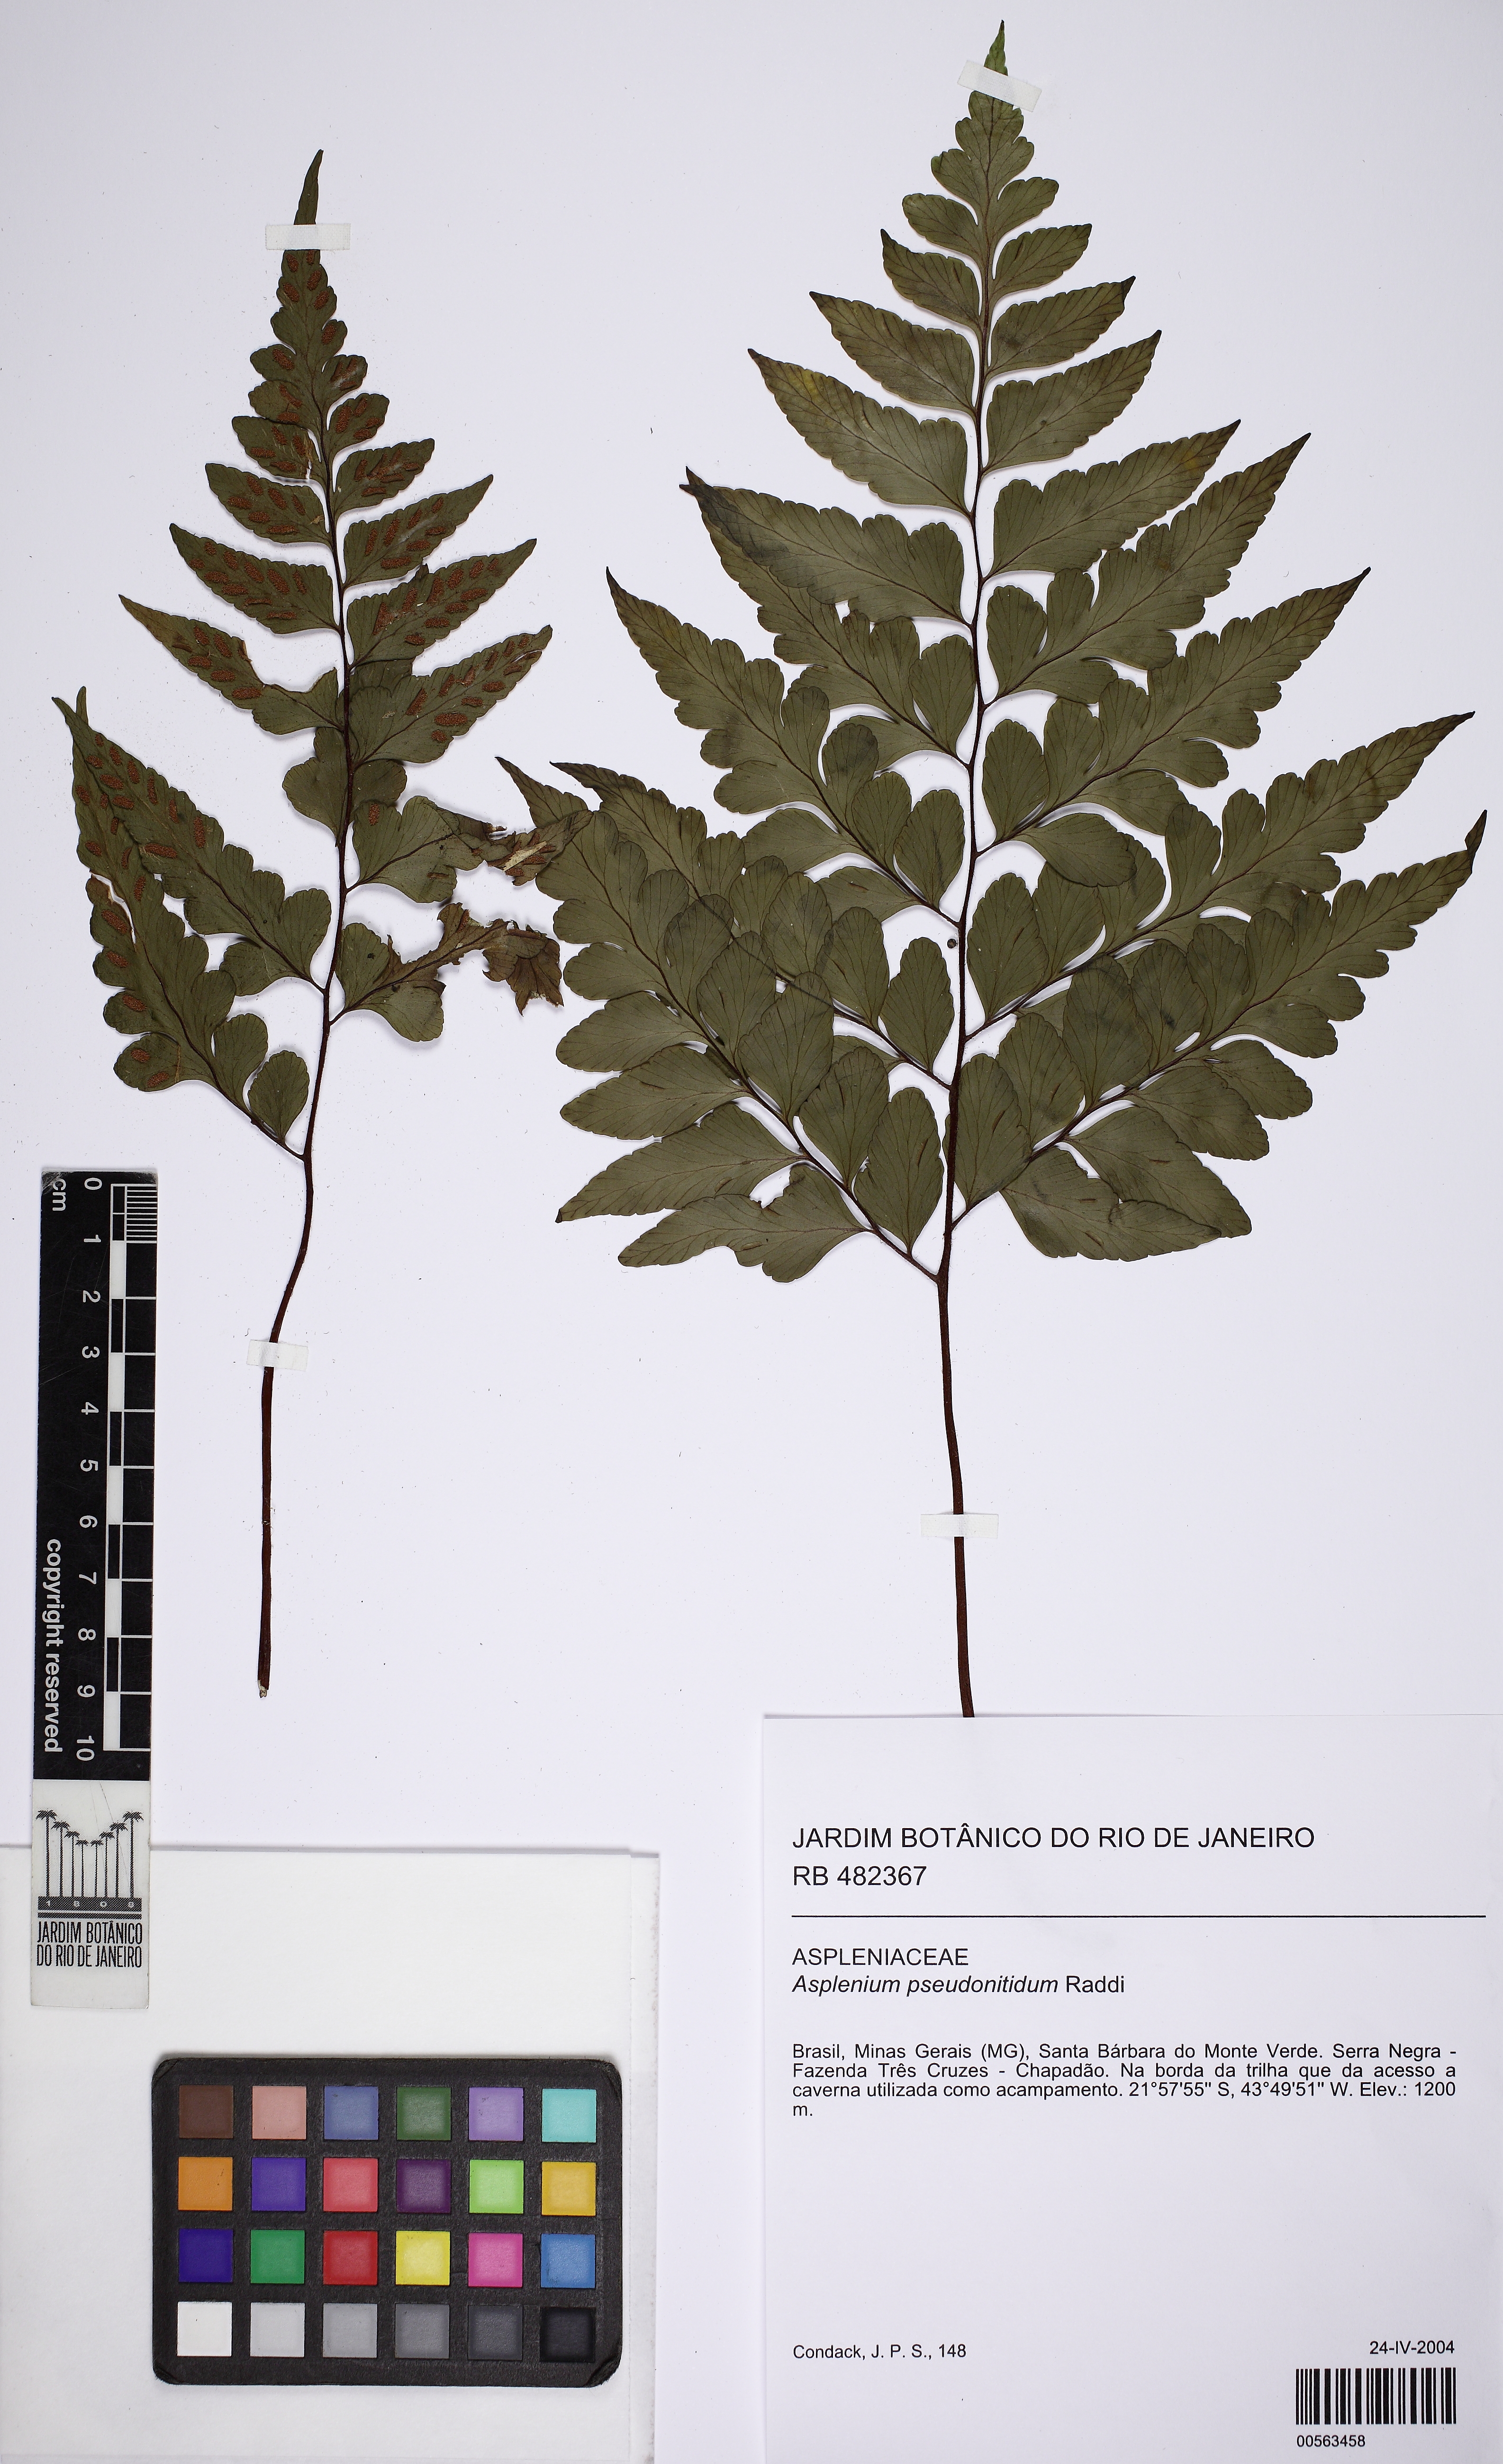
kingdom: Plantae
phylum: Tracheophyta
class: Polypodiopsida
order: Polypodiales
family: Aspleniaceae
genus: Asplenium
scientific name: Asplenium pseudonitidum
